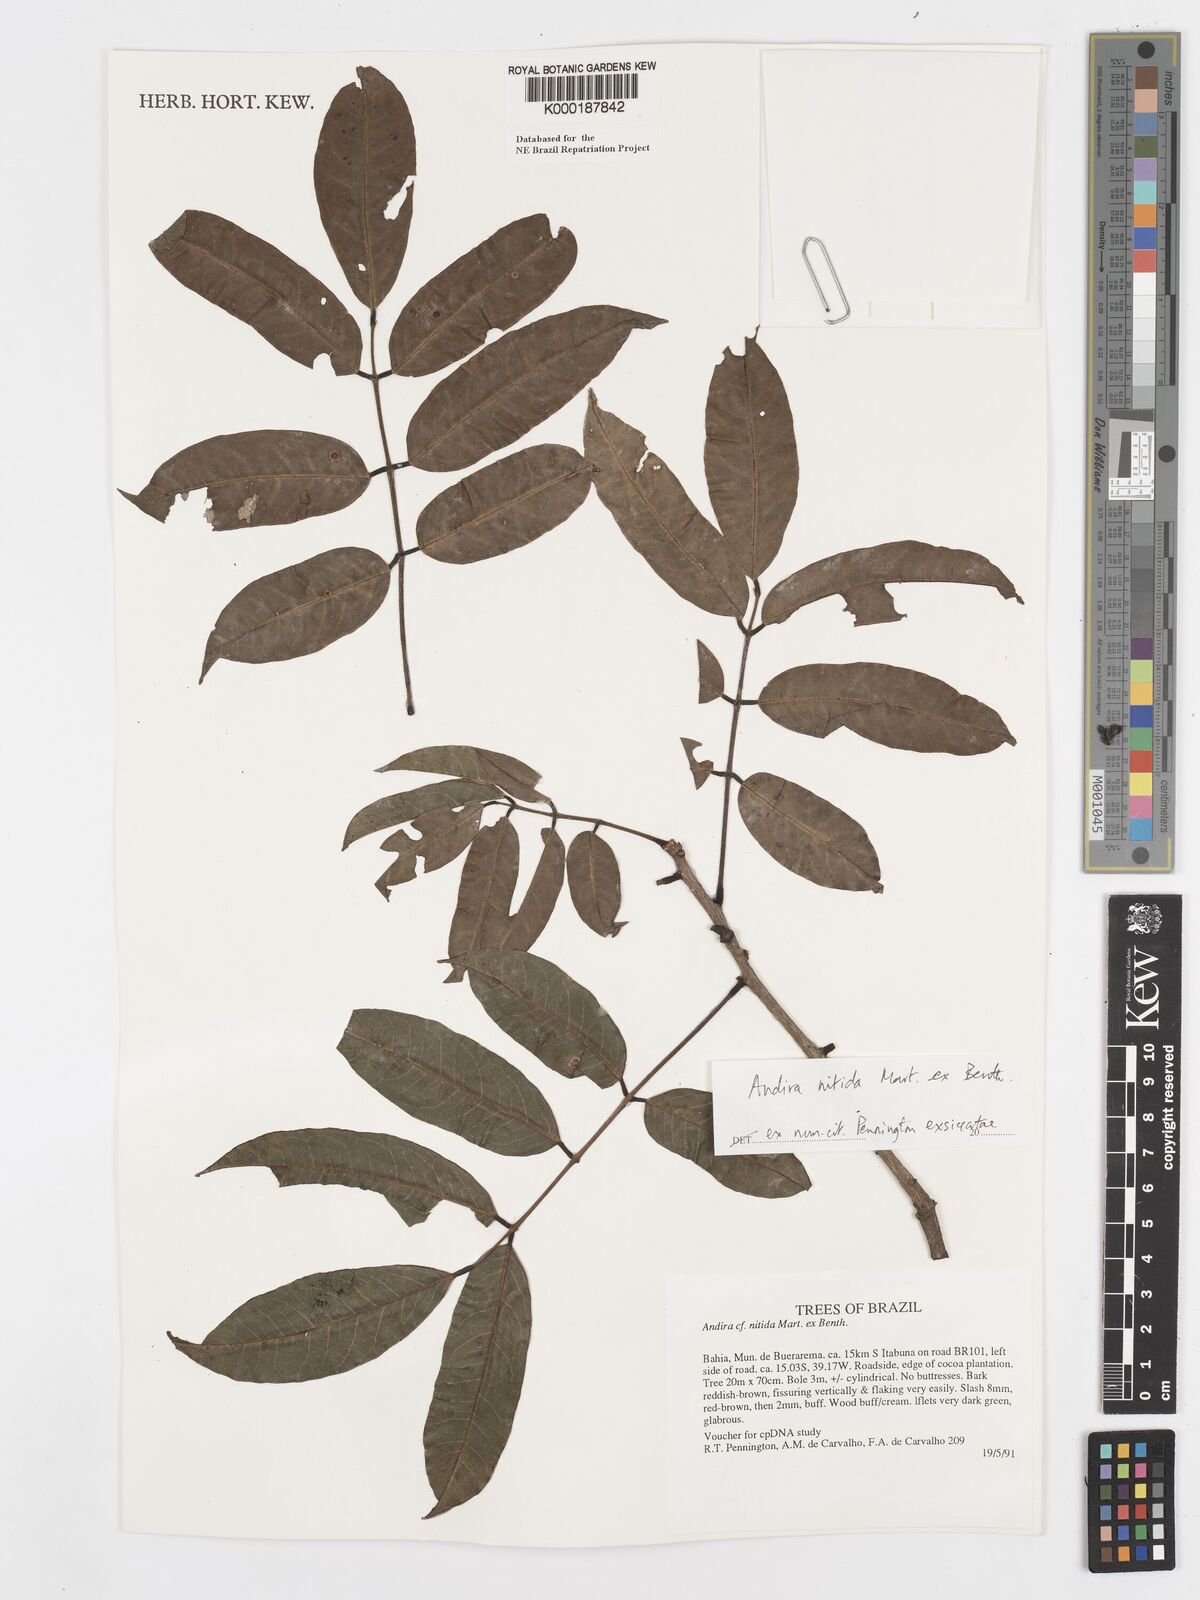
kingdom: Plantae
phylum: Tracheophyta
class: Magnoliopsida
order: Fabales
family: Fabaceae
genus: Andira
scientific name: Andira nitida
